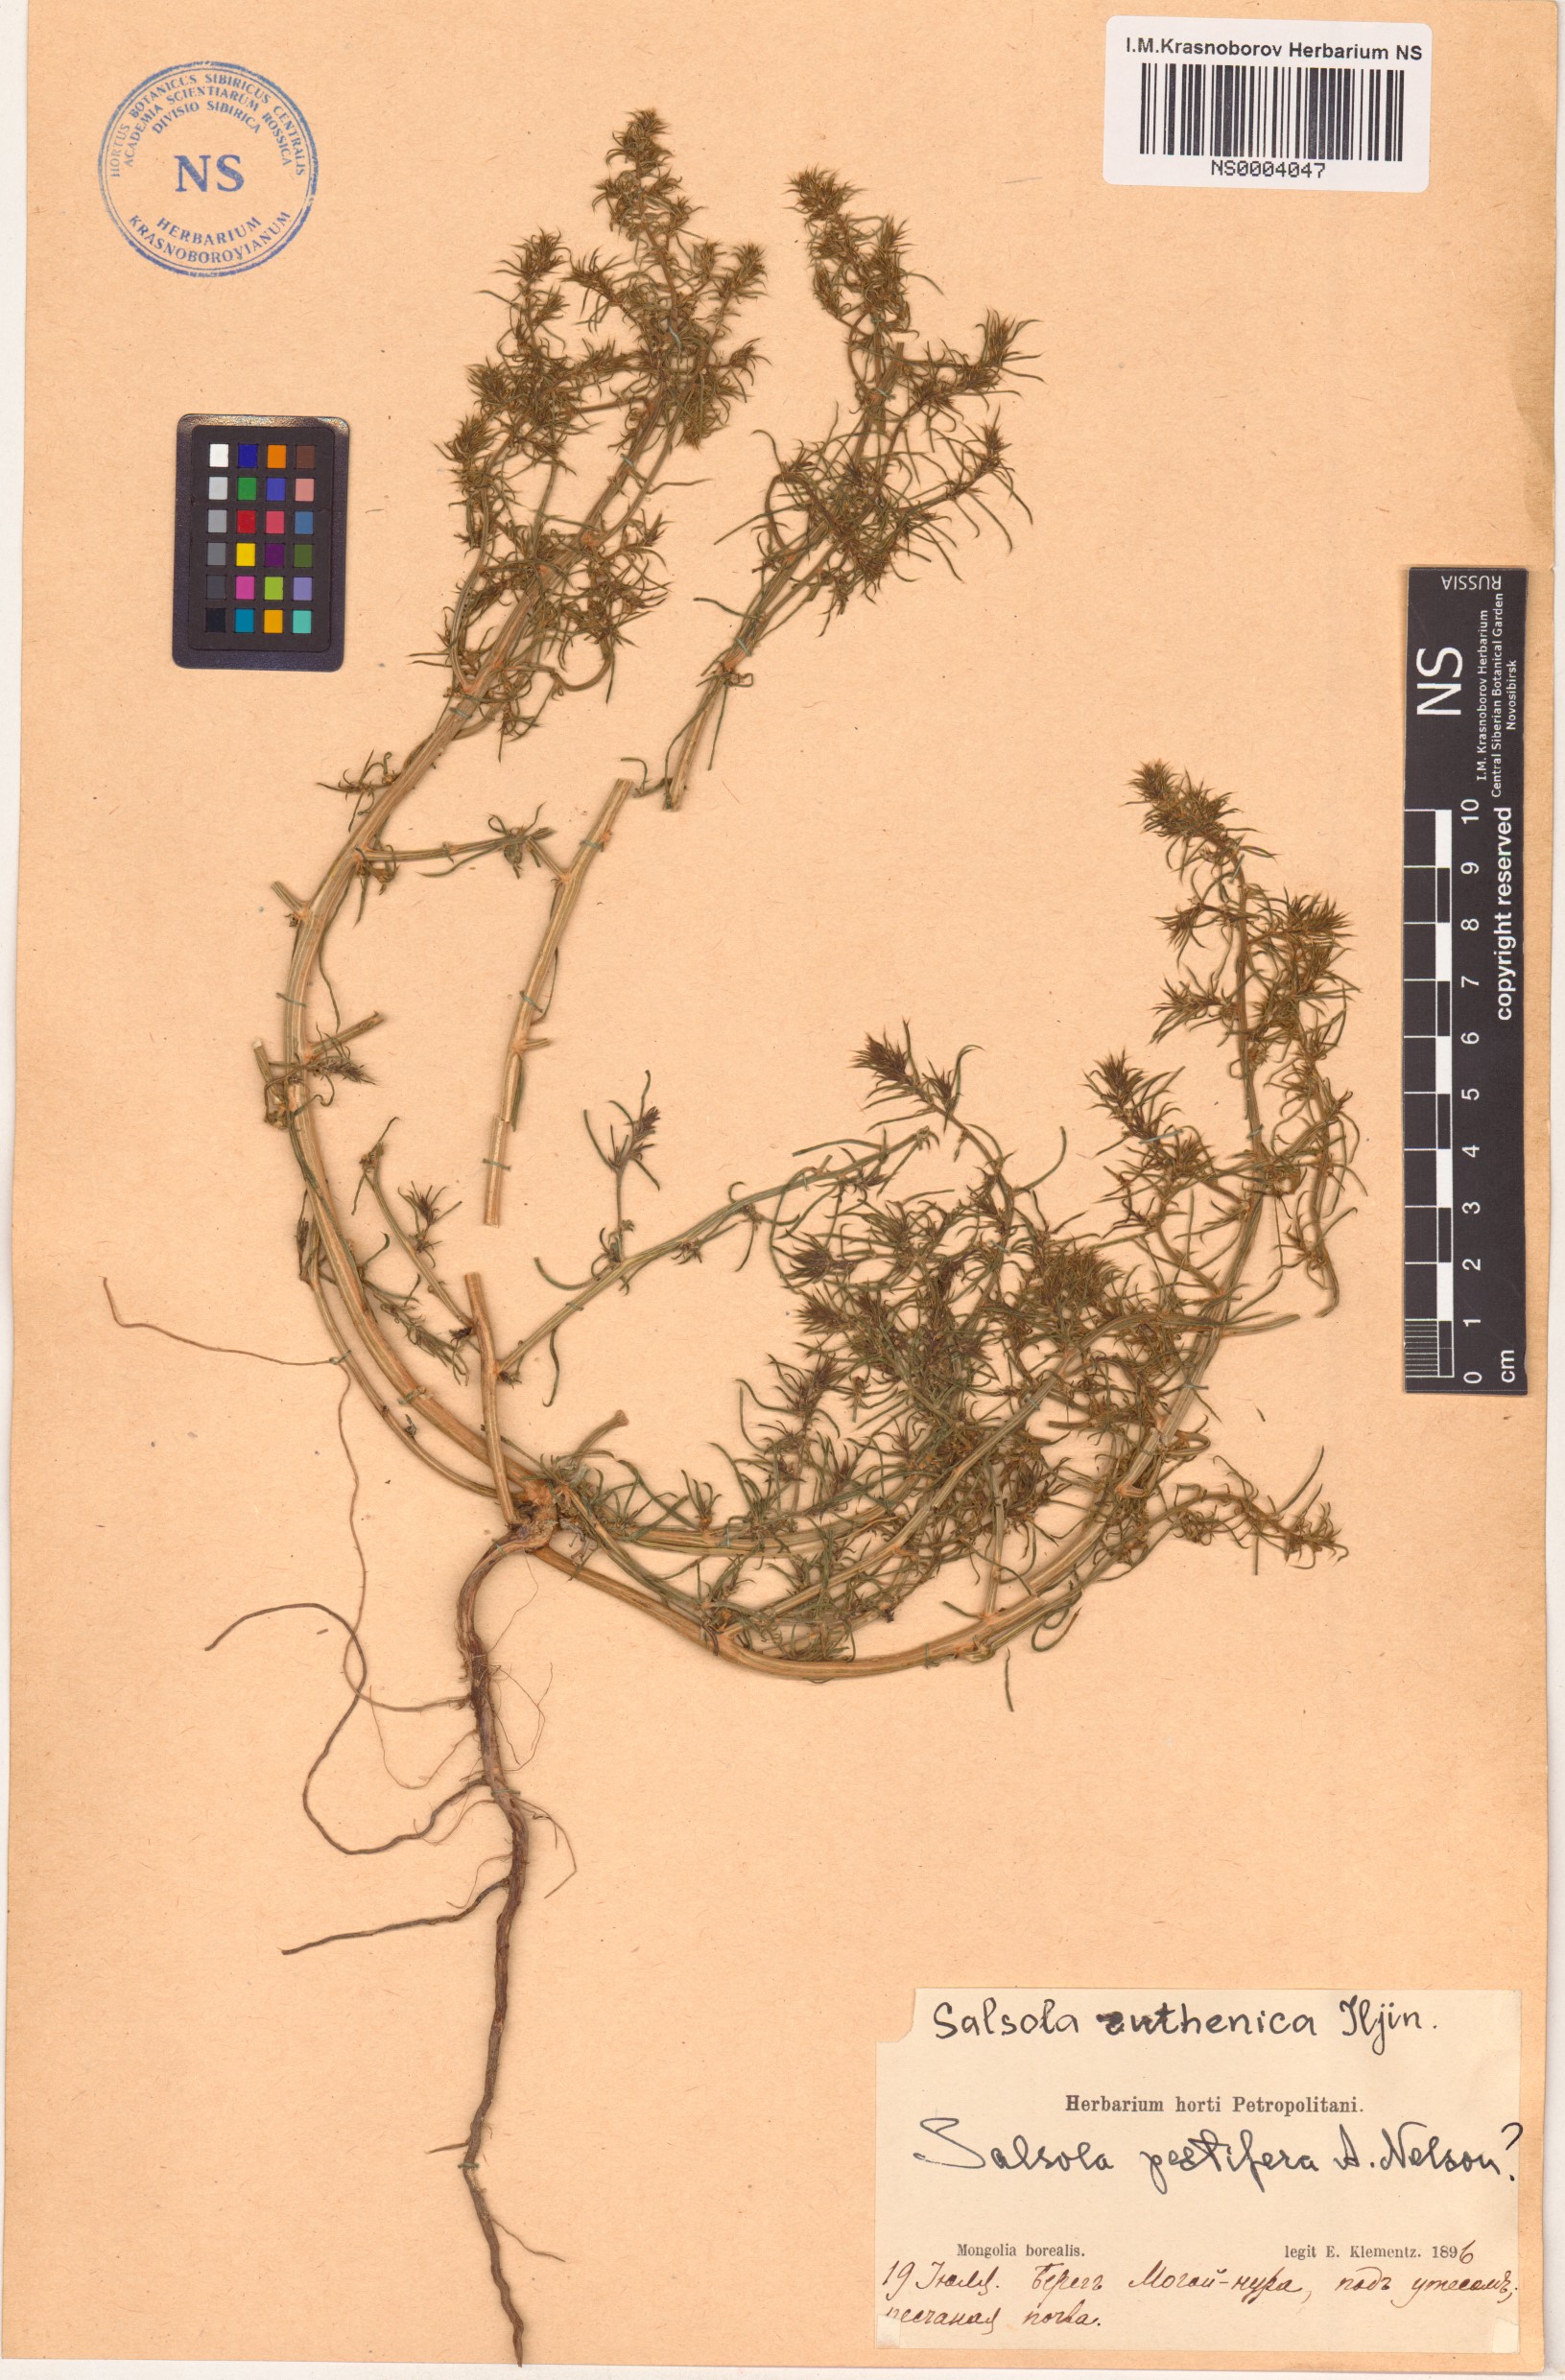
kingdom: Plantae
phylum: Tracheophyta
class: Magnoliopsida
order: Caryophyllales
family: Amaranthaceae
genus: Salsola
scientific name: Salsola tragus
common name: Prickly russian thistle
